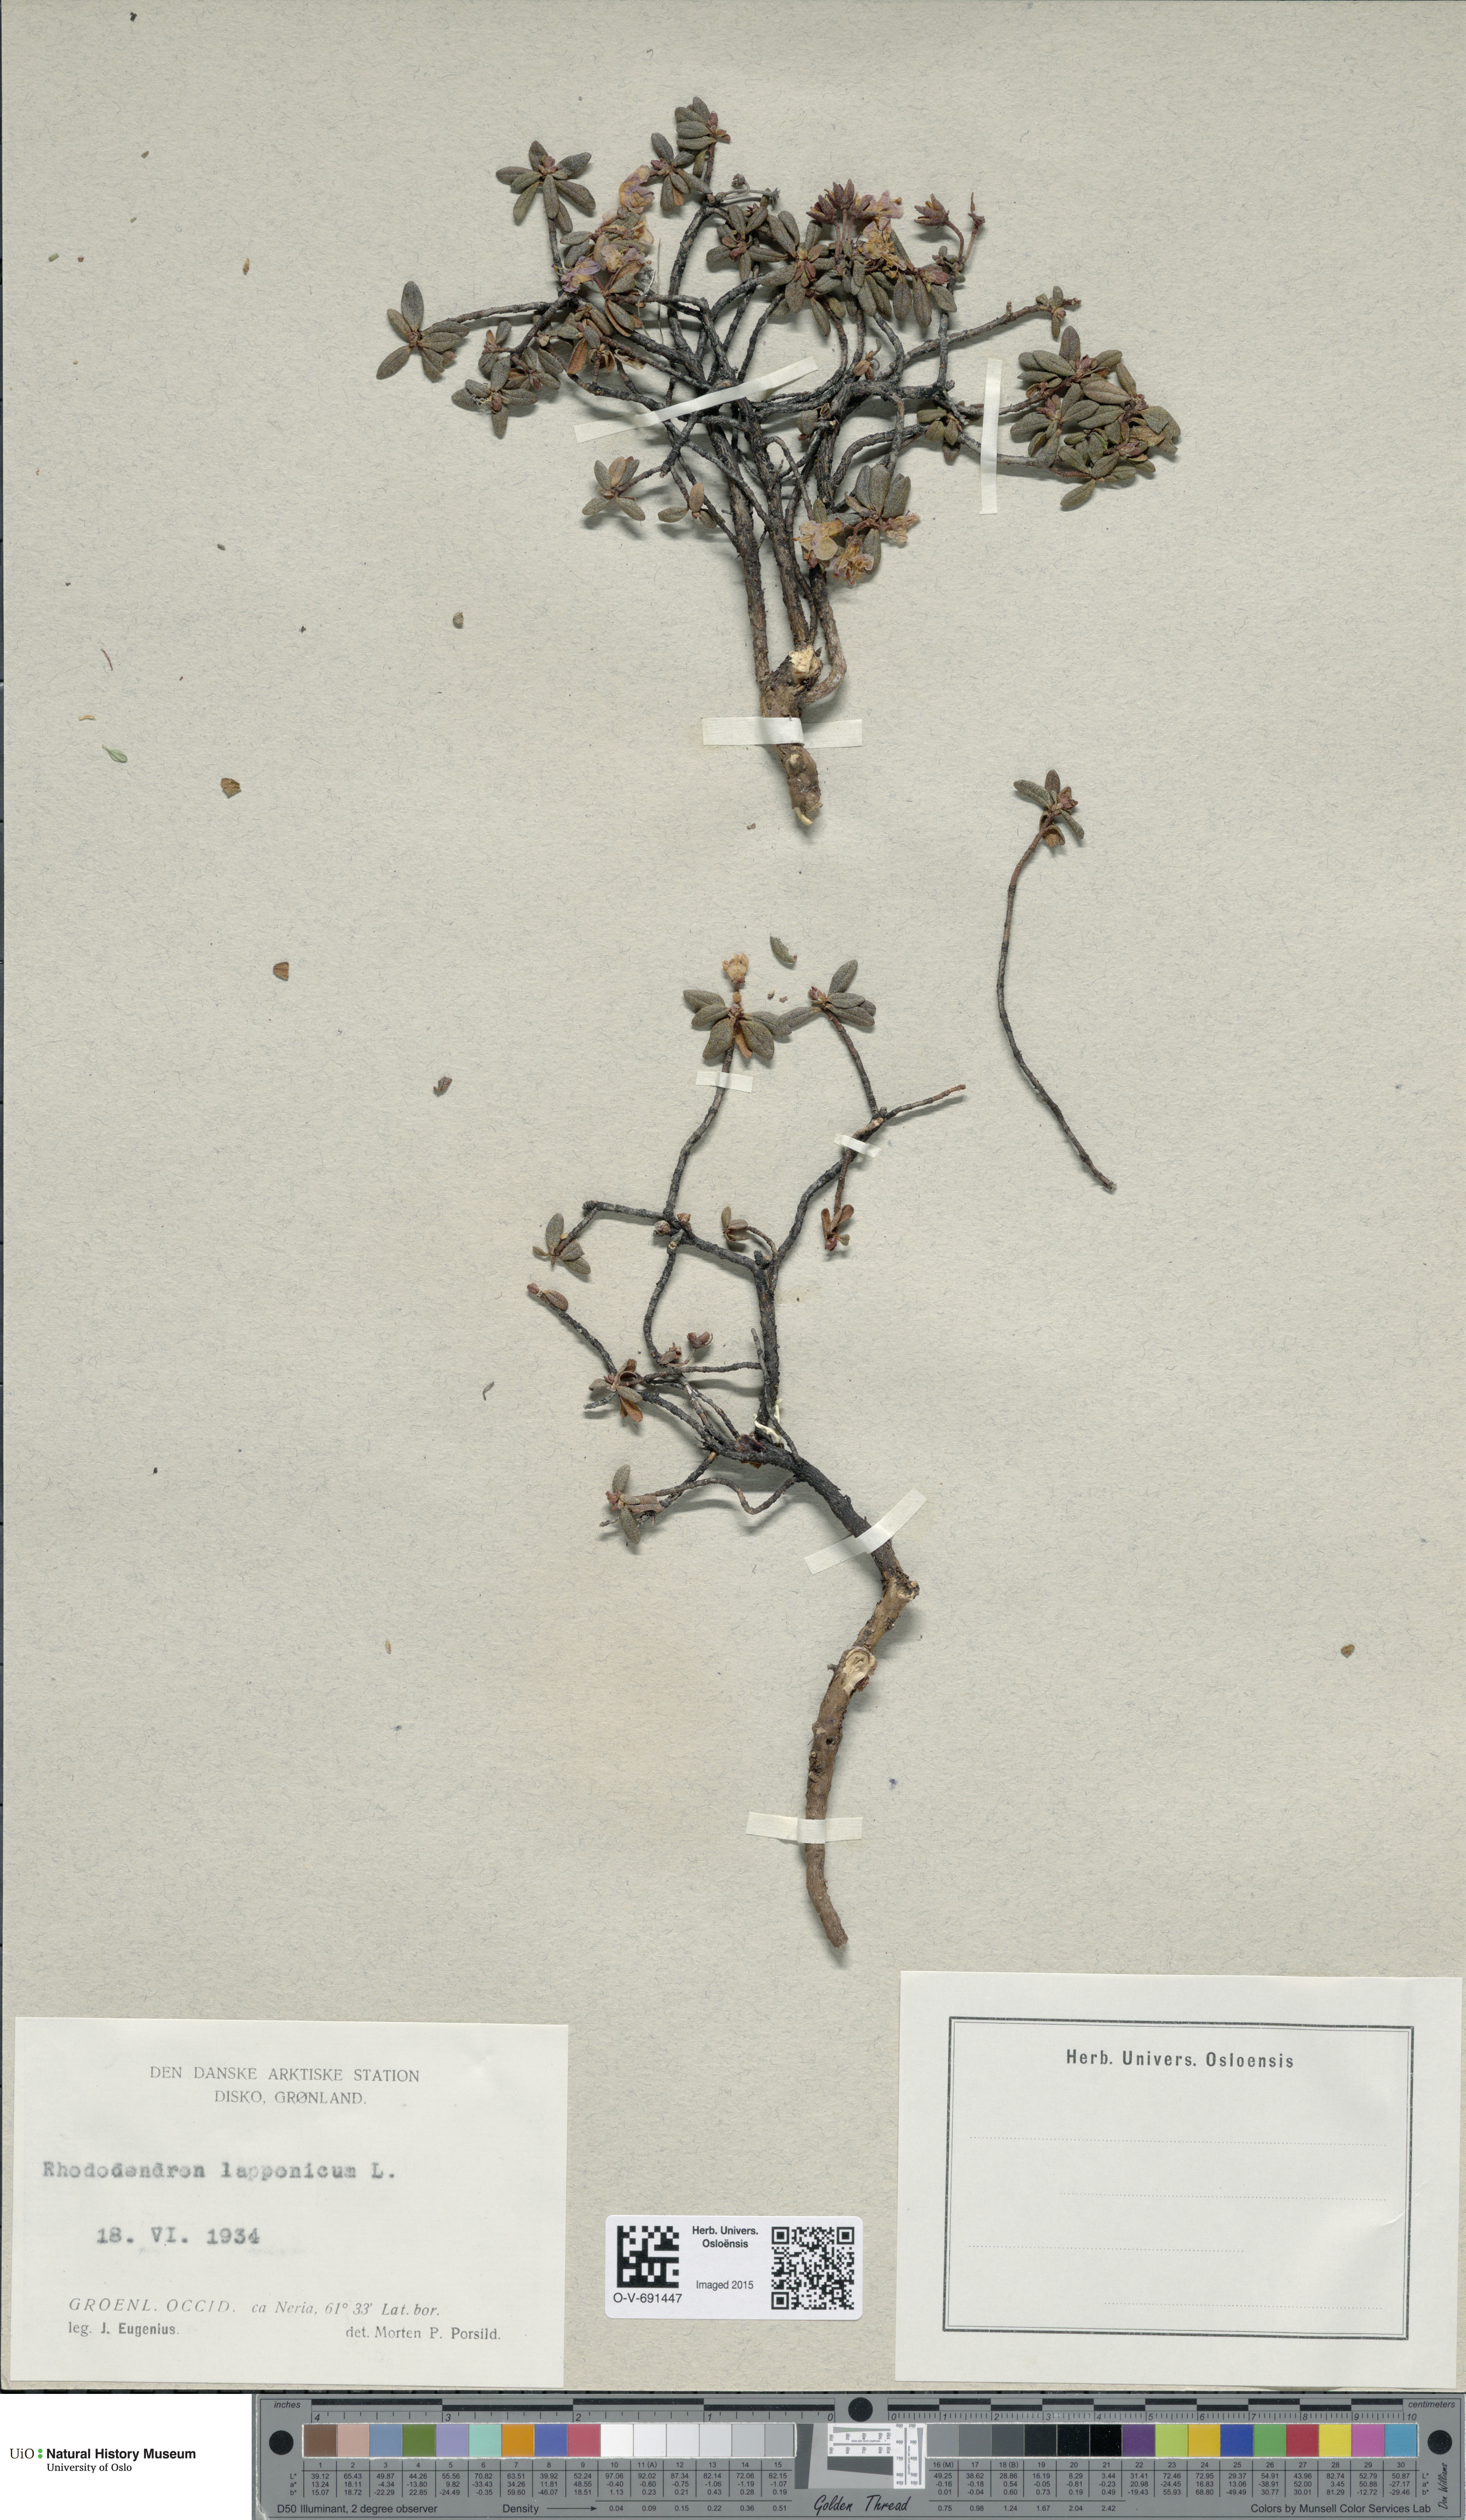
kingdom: Plantae
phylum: Tracheophyta
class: Magnoliopsida
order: Ericales
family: Ericaceae
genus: Rhododendron
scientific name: Rhododendron lapponicum
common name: Lapland rhododendron
